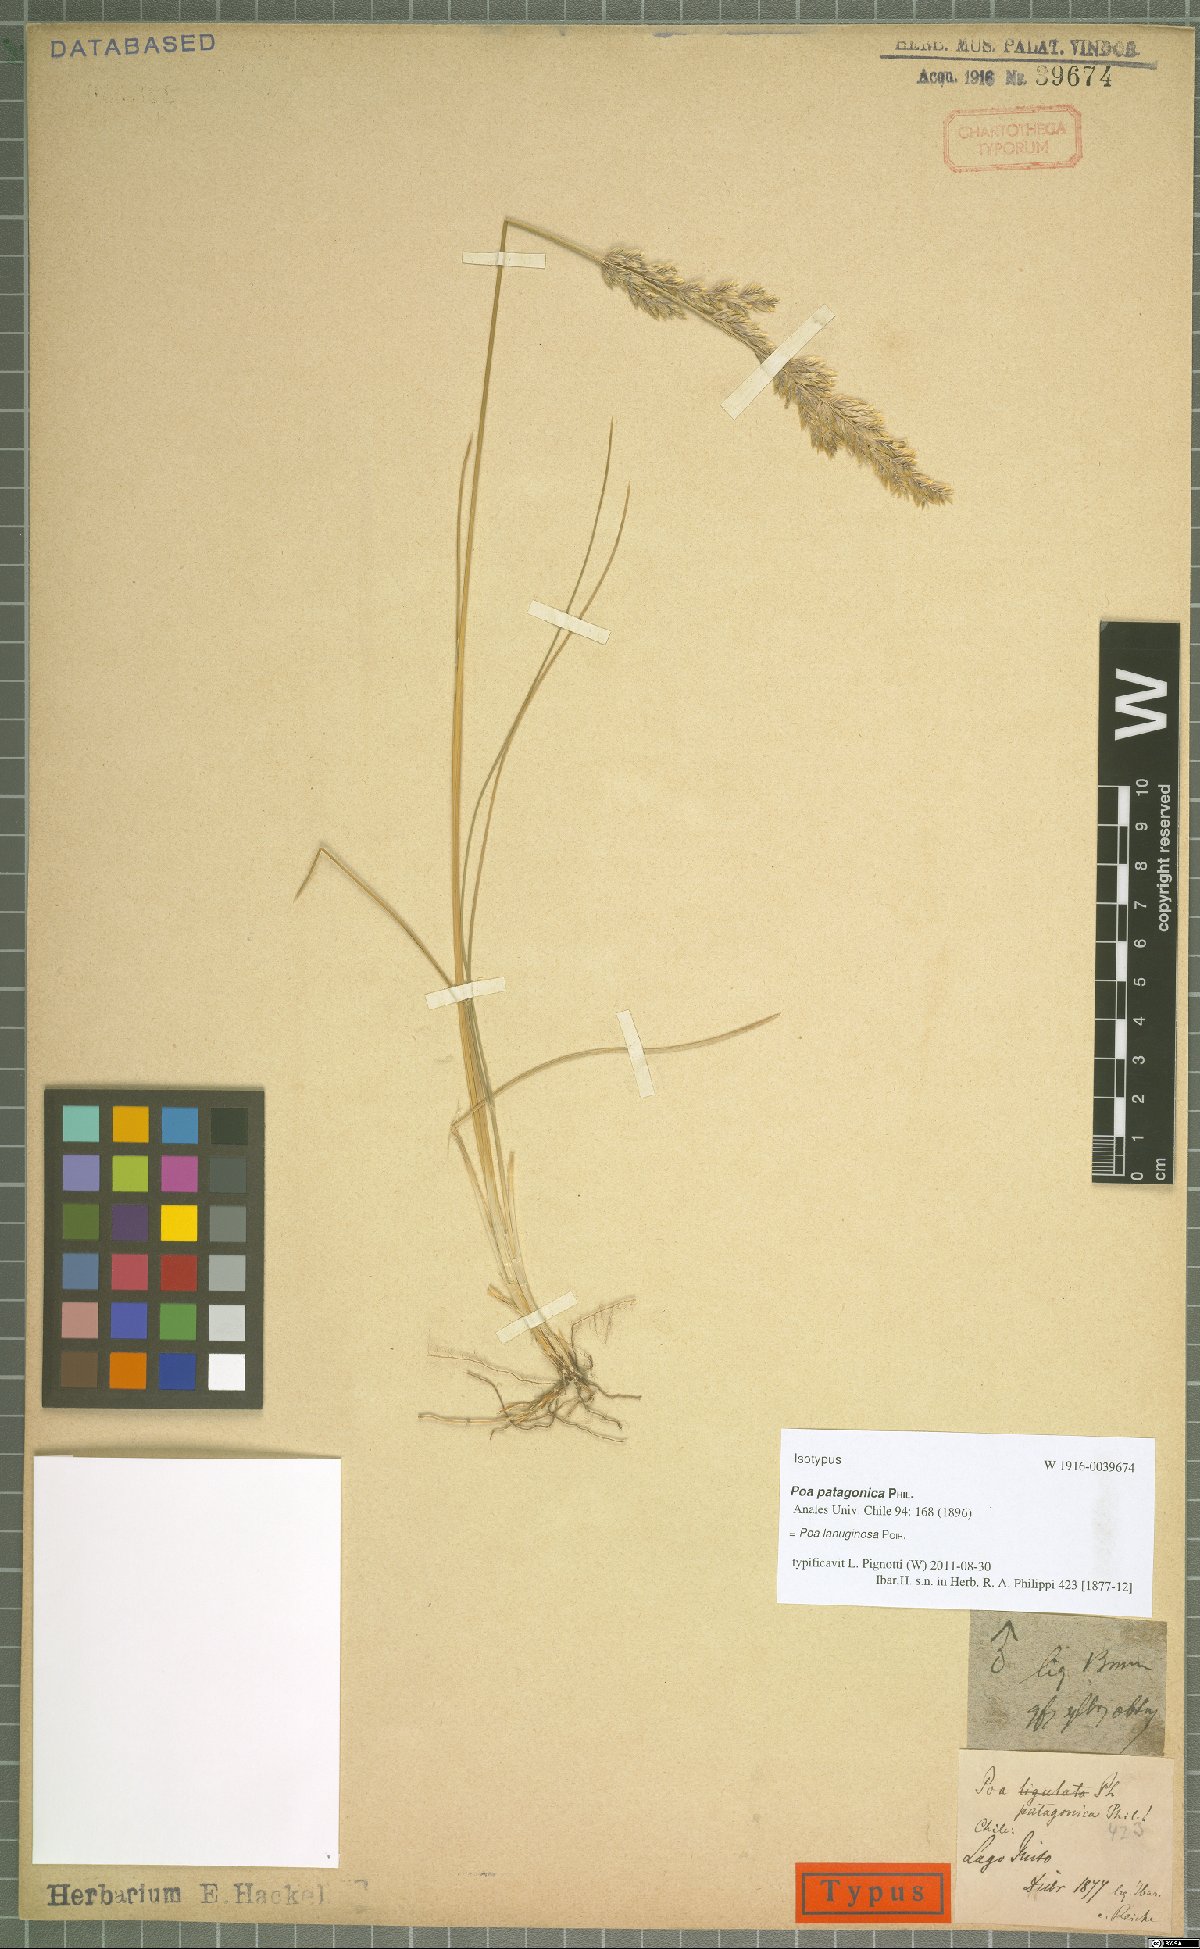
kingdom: Plantae
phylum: Tracheophyta
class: Liliopsida
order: Poales
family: Poaceae
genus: Poa
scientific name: Poa lanuginosa
